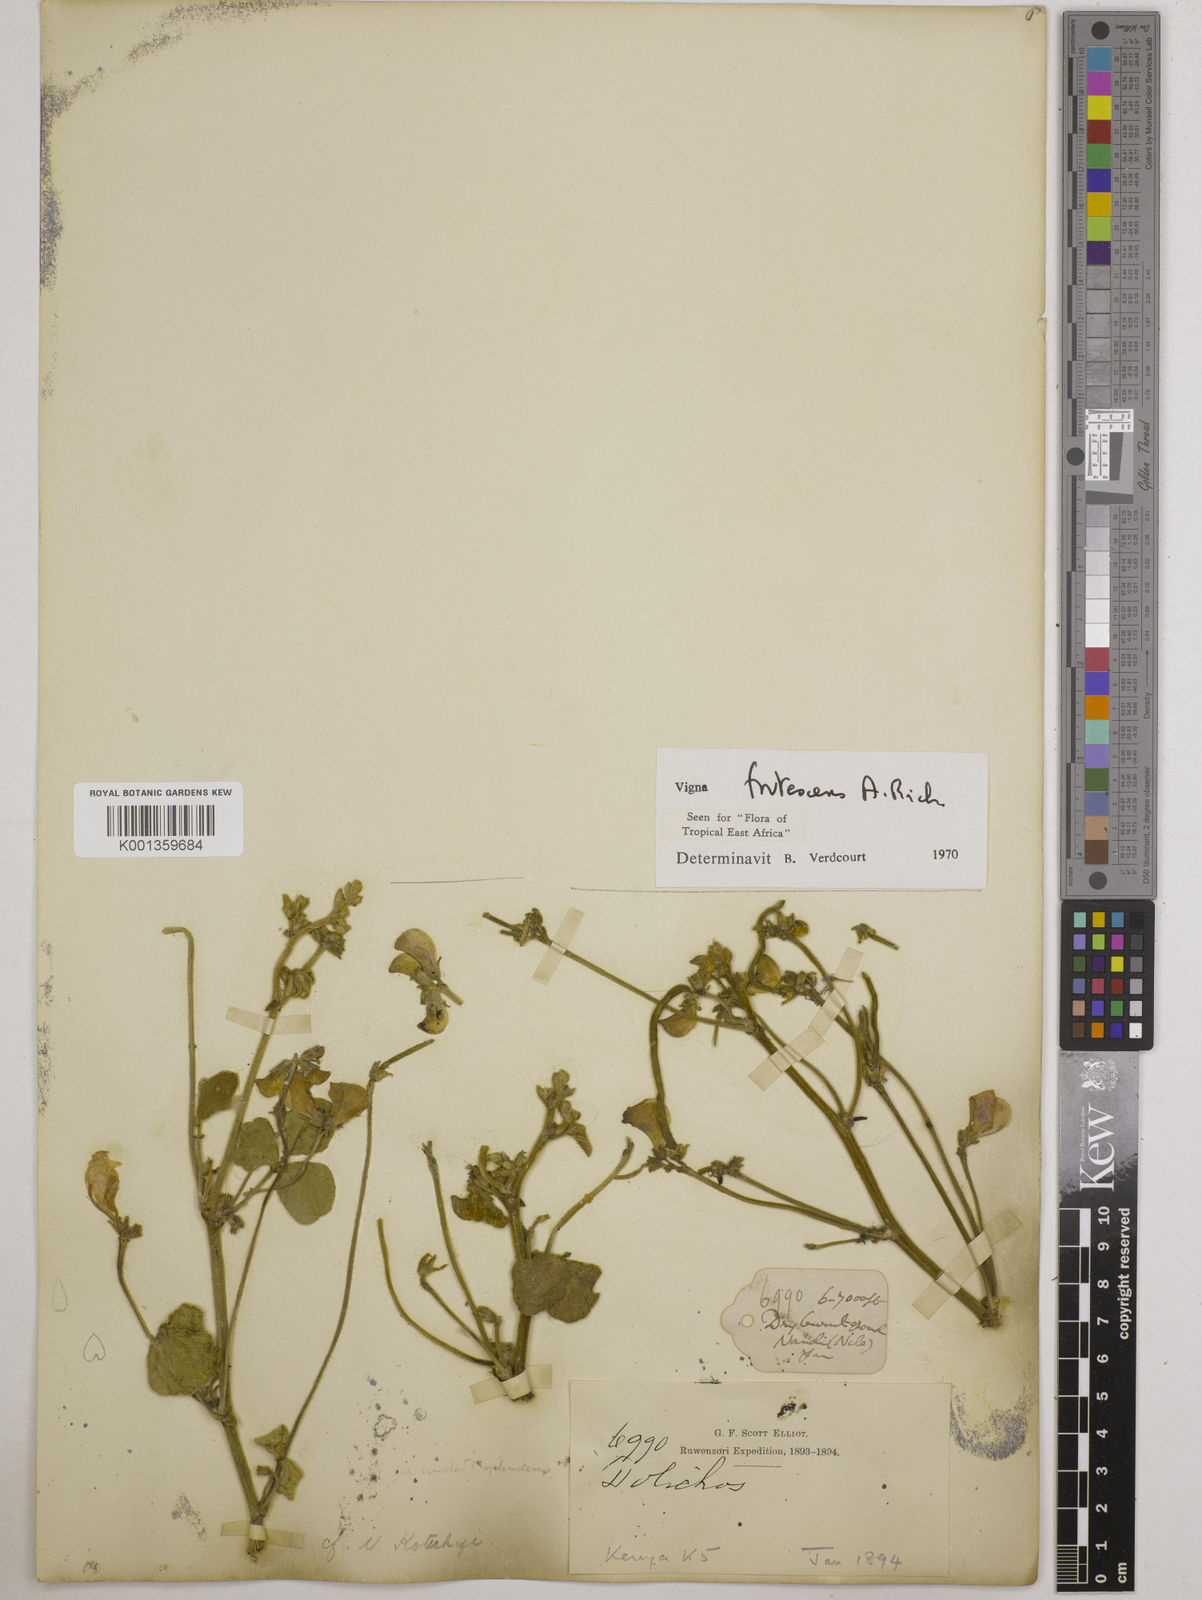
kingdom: Plantae
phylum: Tracheophyta
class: Magnoliopsida
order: Fabales
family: Fabaceae
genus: Vigna
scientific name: Vigna frutescens
